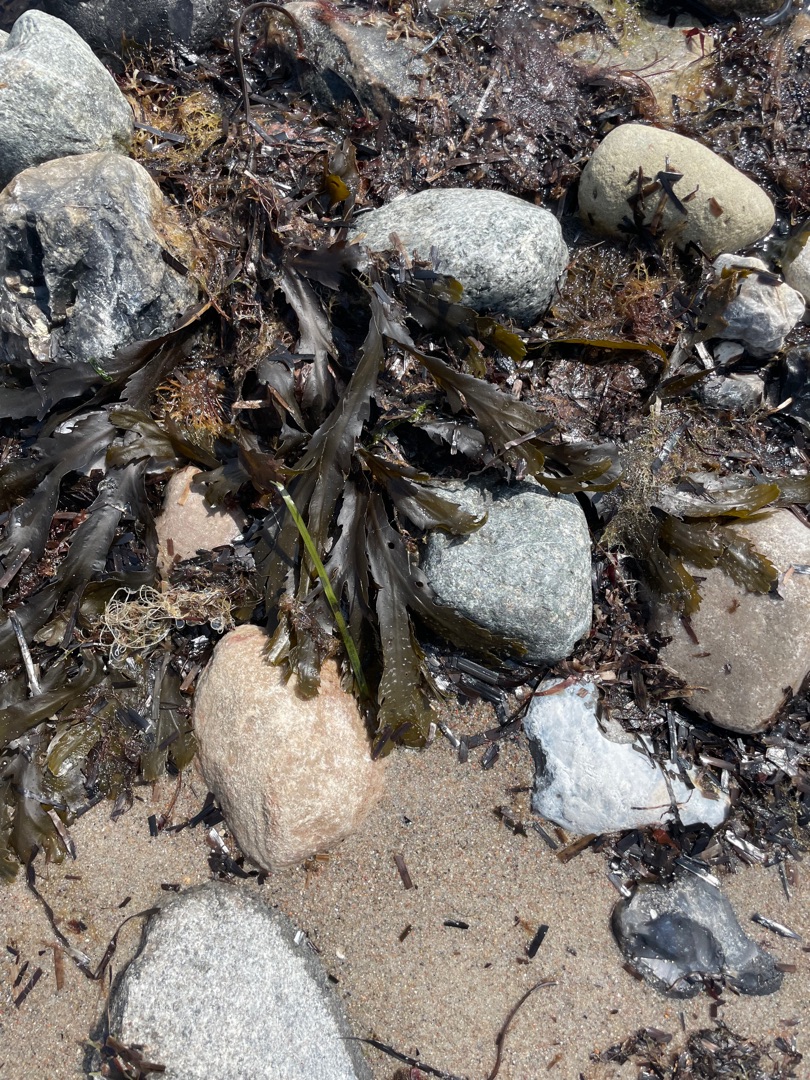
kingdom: Chromista
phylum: Ochrophyta
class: Phaeophyceae
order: Fucales
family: Fucaceae
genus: Fucus
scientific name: Fucus serratus
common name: Savtang
